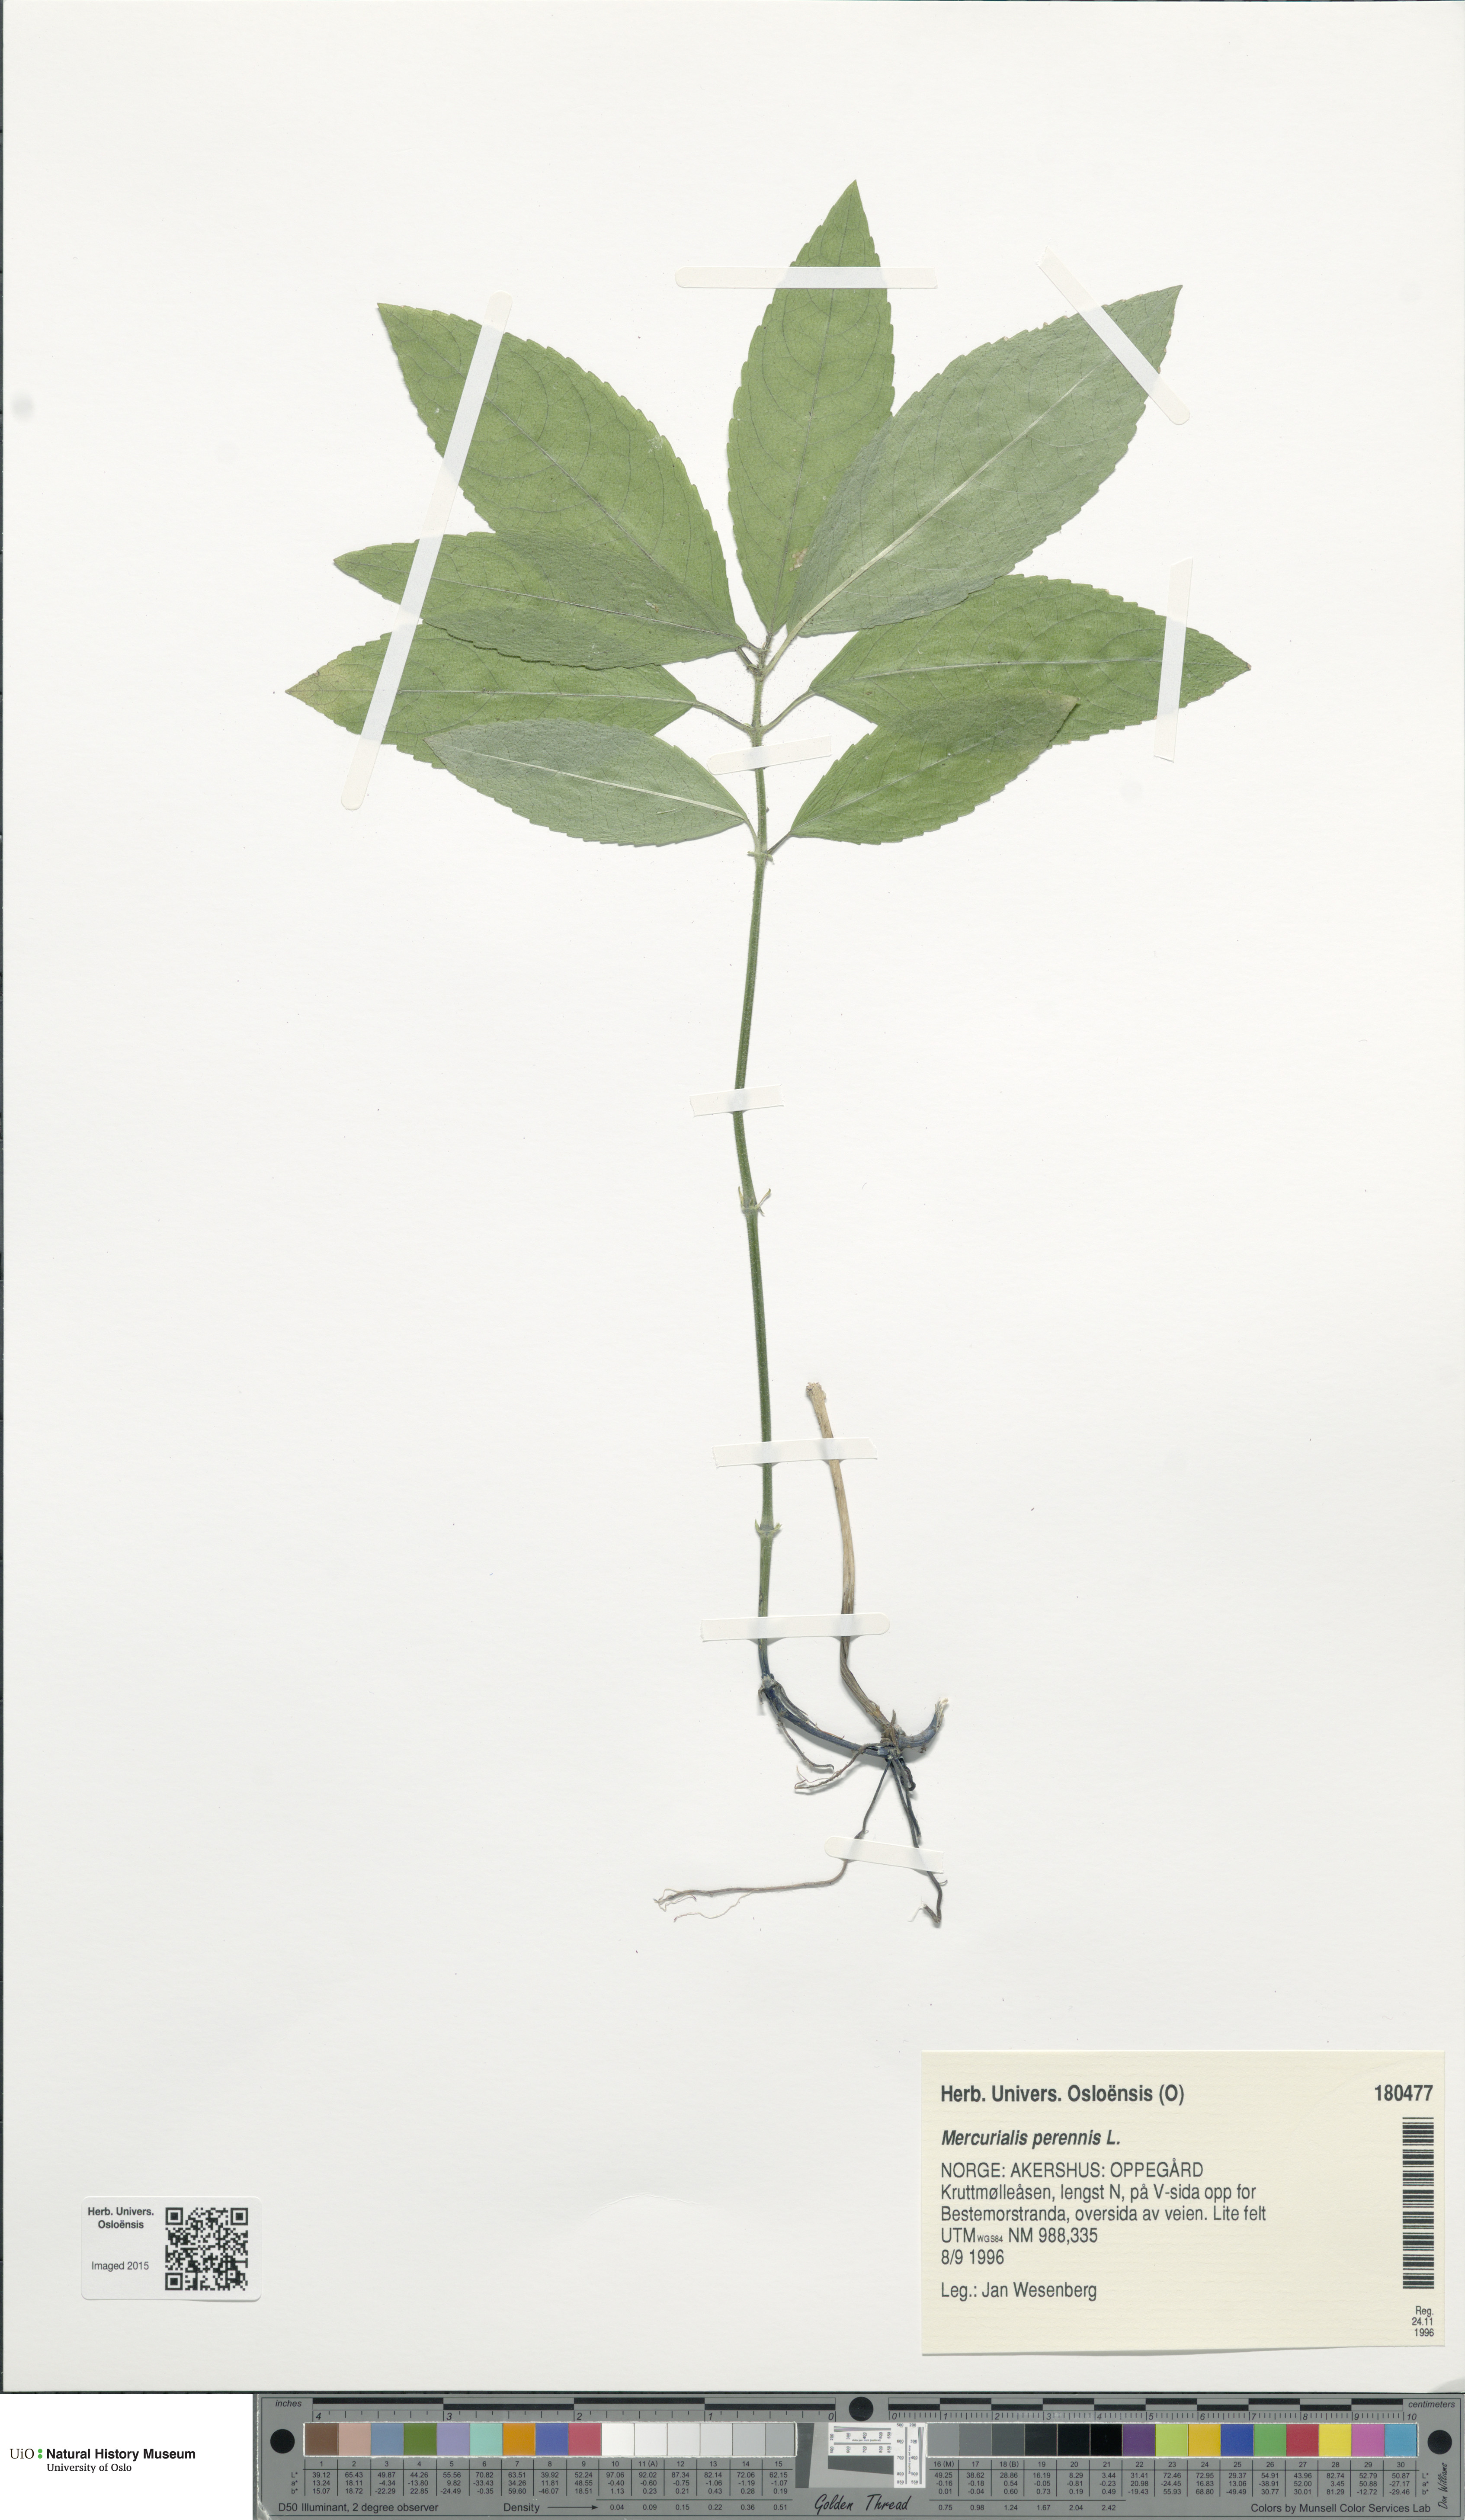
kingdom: Plantae
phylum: Tracheophyta
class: Magnoliopsida
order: Malpighiales
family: Euphorbiaceae
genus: Mercurialis
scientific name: Mercurialis perennis
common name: Dog mercury
